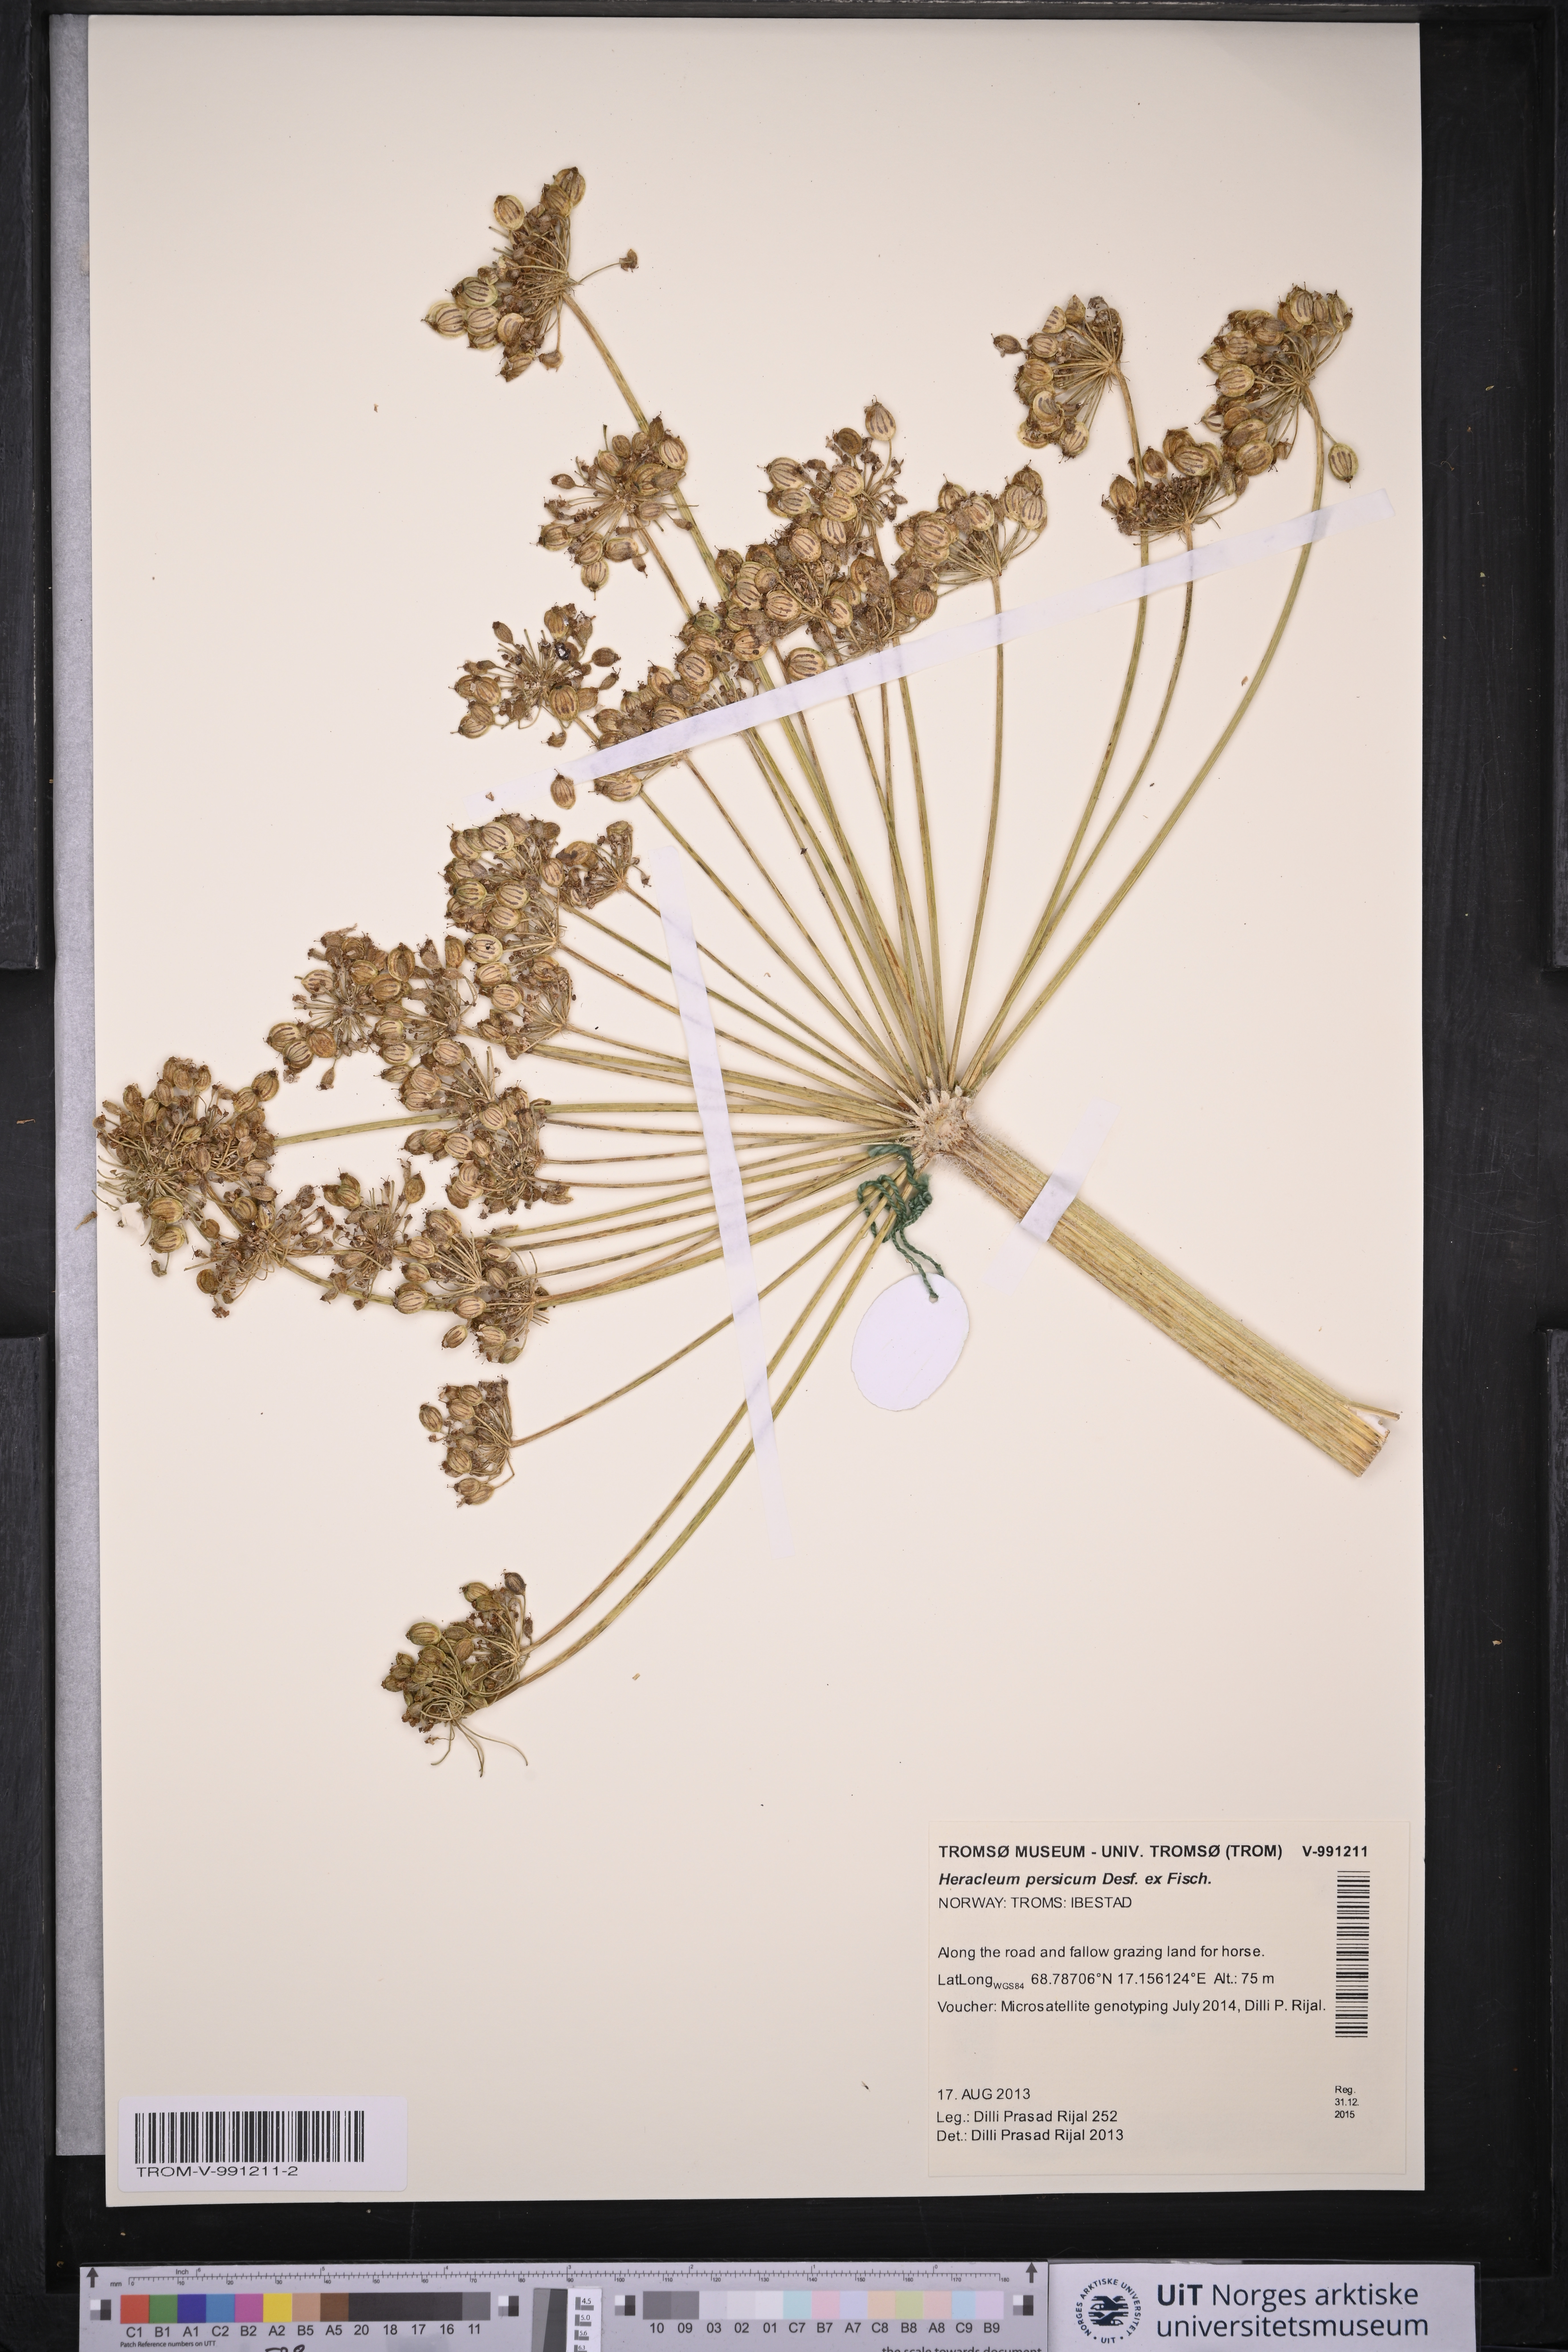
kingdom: Plantae
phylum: Tracheophyta
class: Magnoliopsida
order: Apiales
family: Apiaceae
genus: Heracleum
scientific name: Heracleum persicum
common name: Persian hogweed
